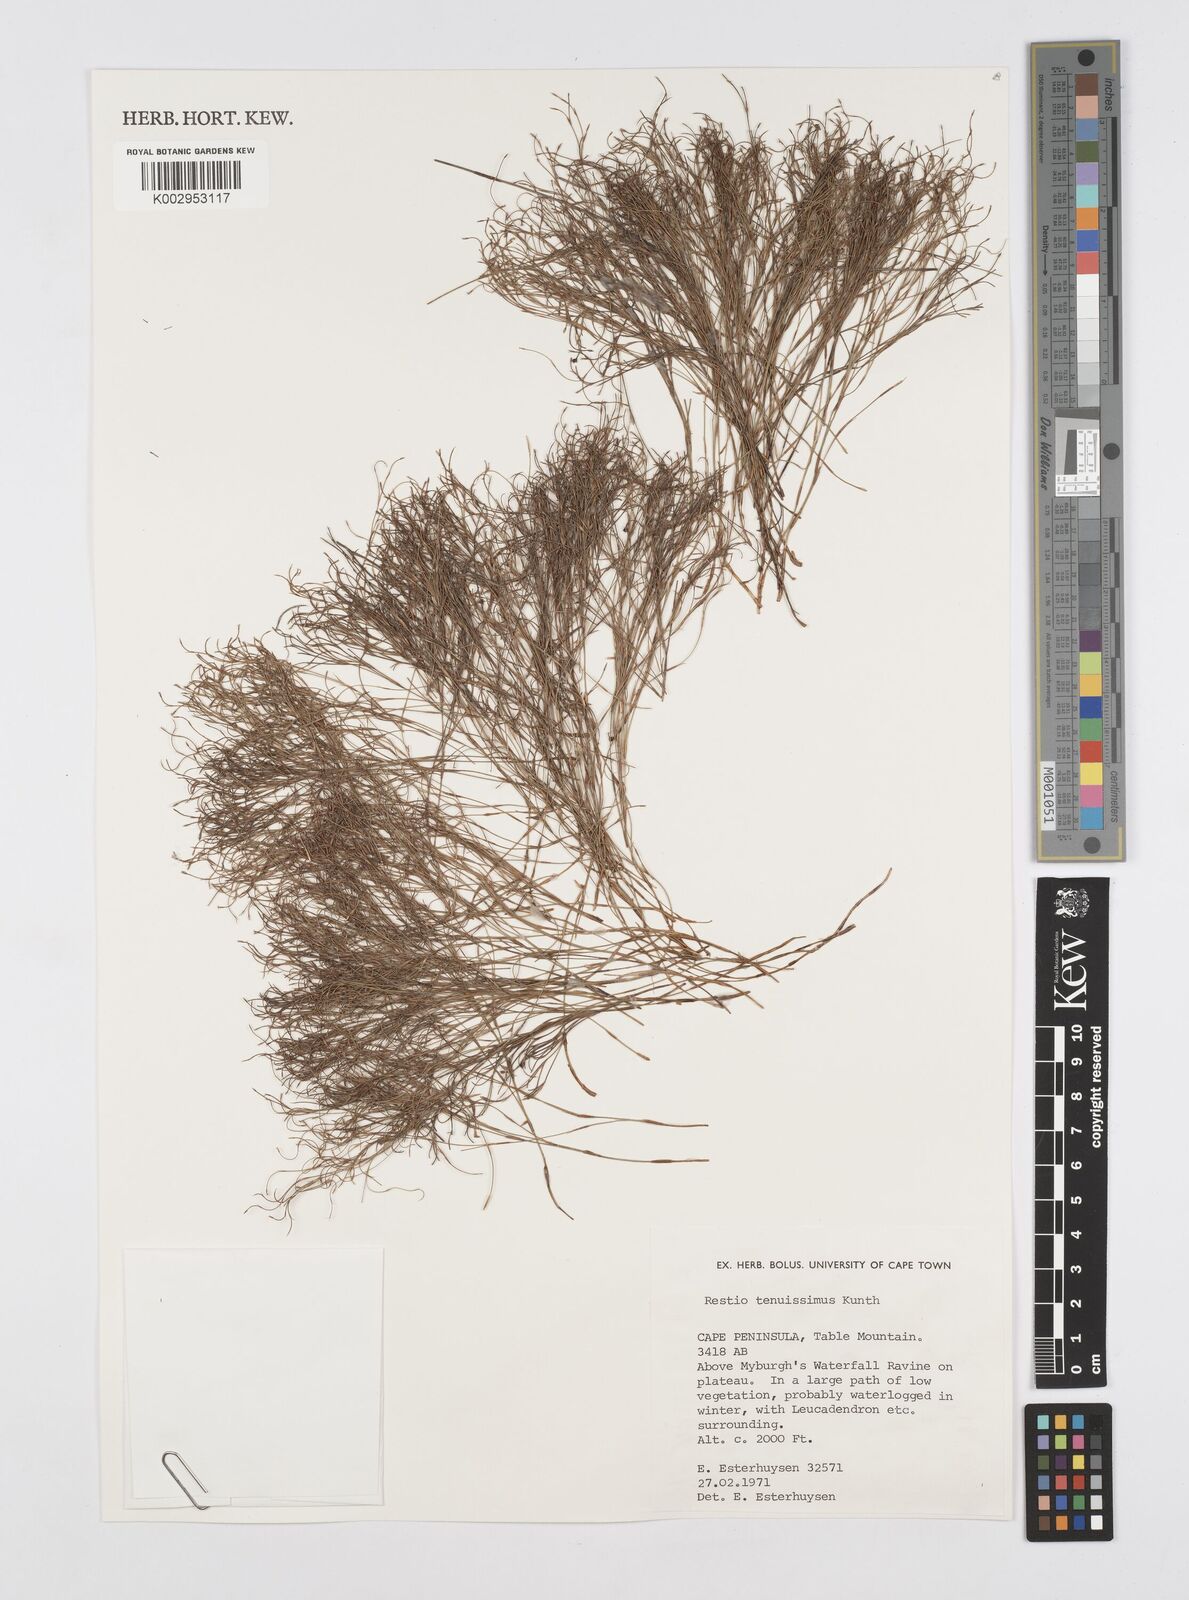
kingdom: Plantae
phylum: Tracheophyta
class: Liliopsida
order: Poales
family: Restionaceae
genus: Restio
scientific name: Restio tenuissimus
